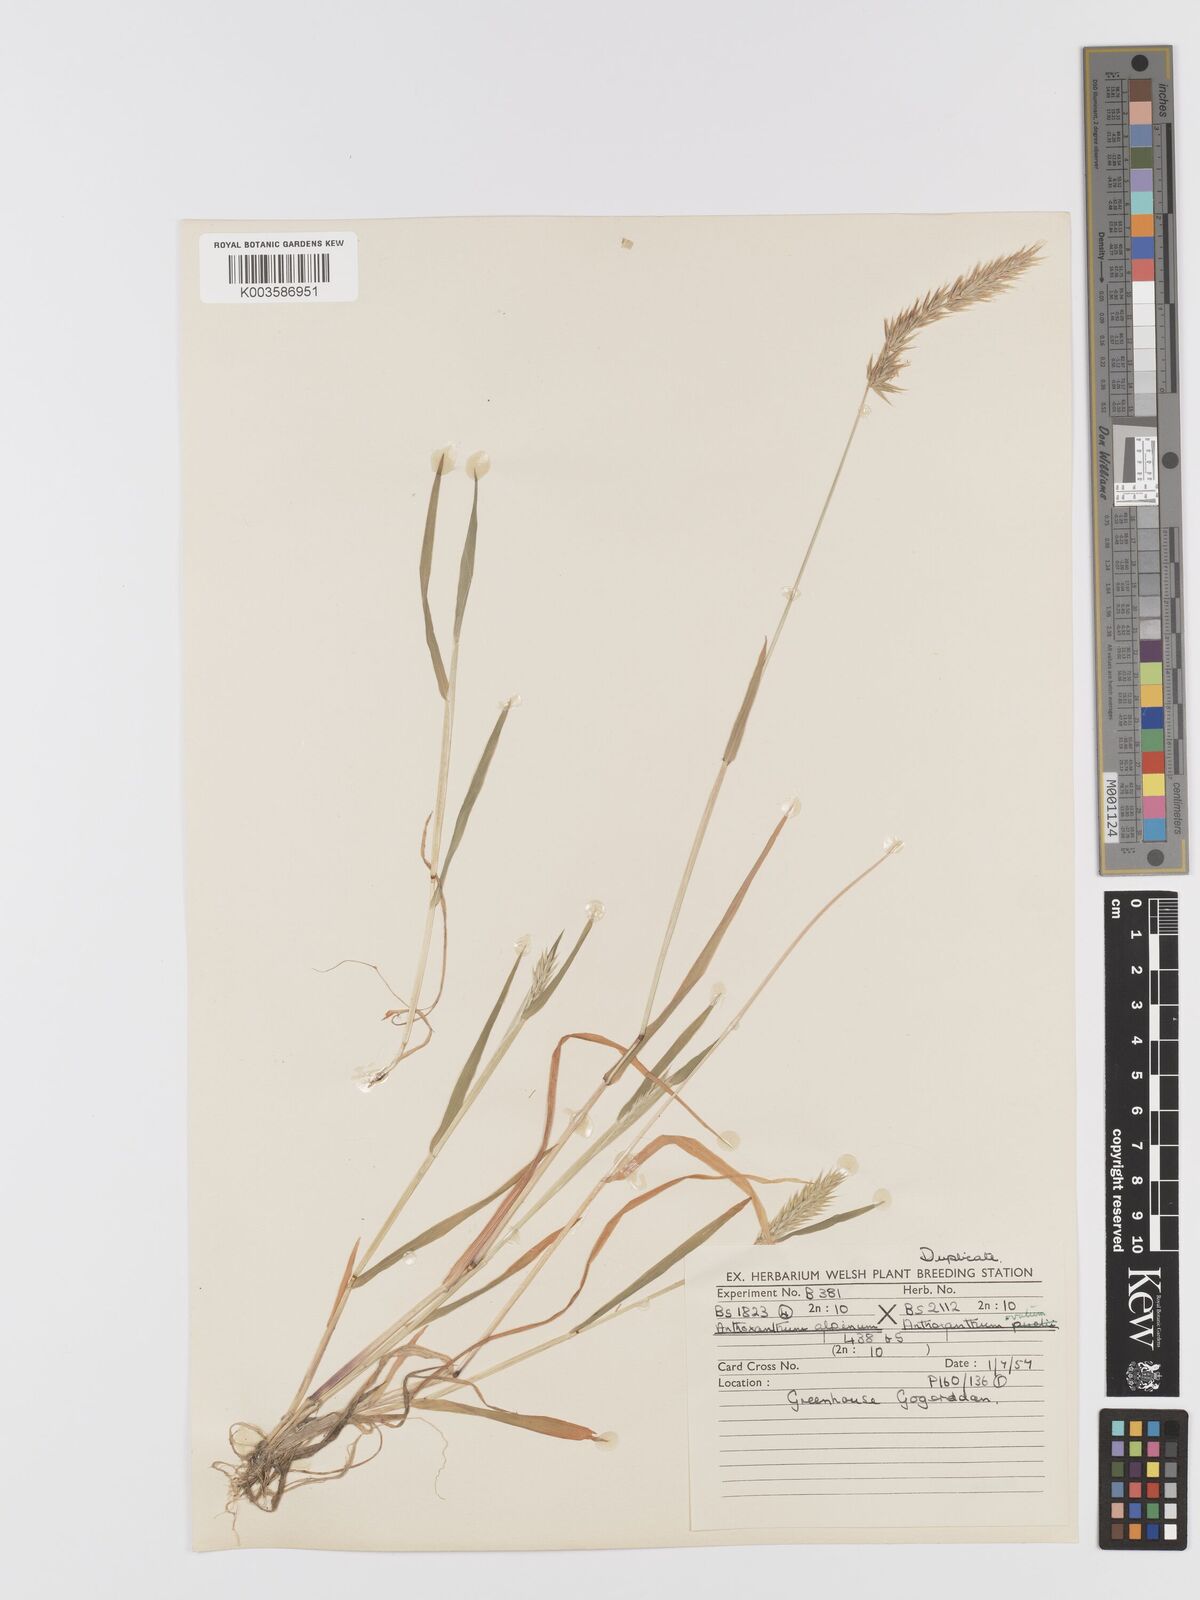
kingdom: Plantae
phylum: Tracheophyta
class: Liliopsida
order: Poales
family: Poaceae
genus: Anthoxanthum
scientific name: Anthoxanthum nipponicum
